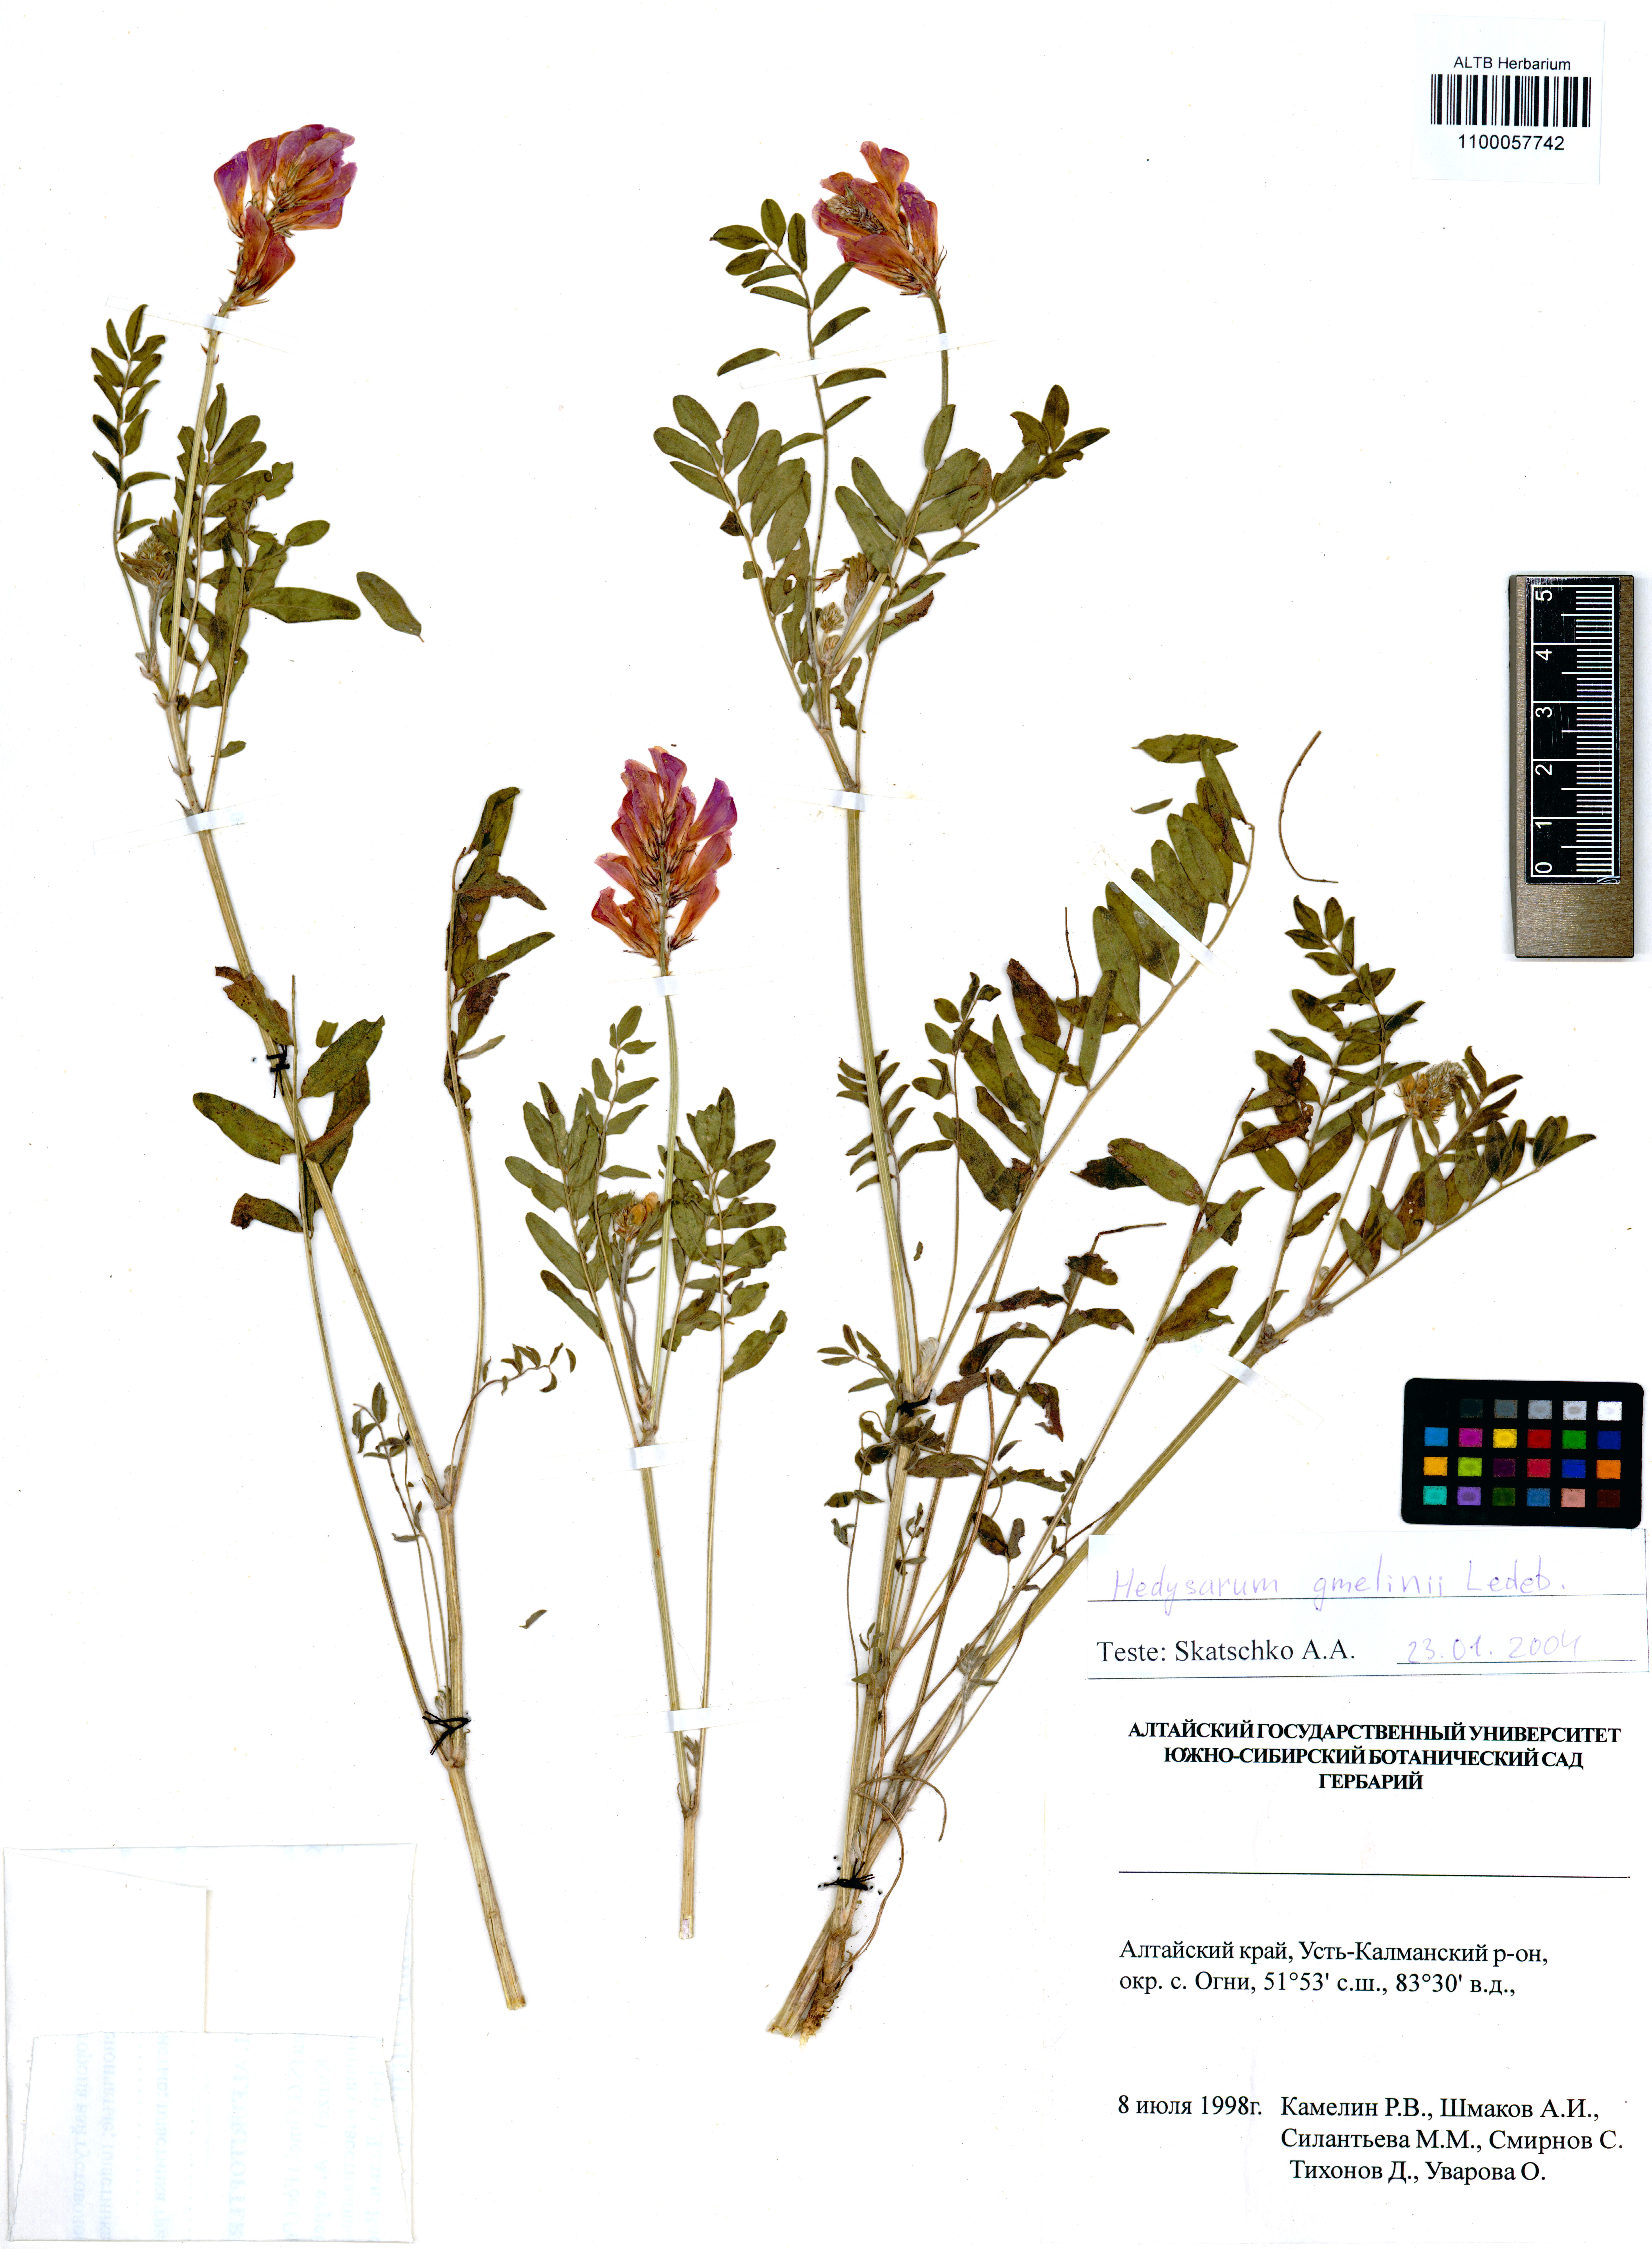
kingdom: Plantae
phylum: Tracheophyta
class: Magnoliopsida
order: Fabales
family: Fabaceae
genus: Hedysarum
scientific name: Hedysarum gmelinii
